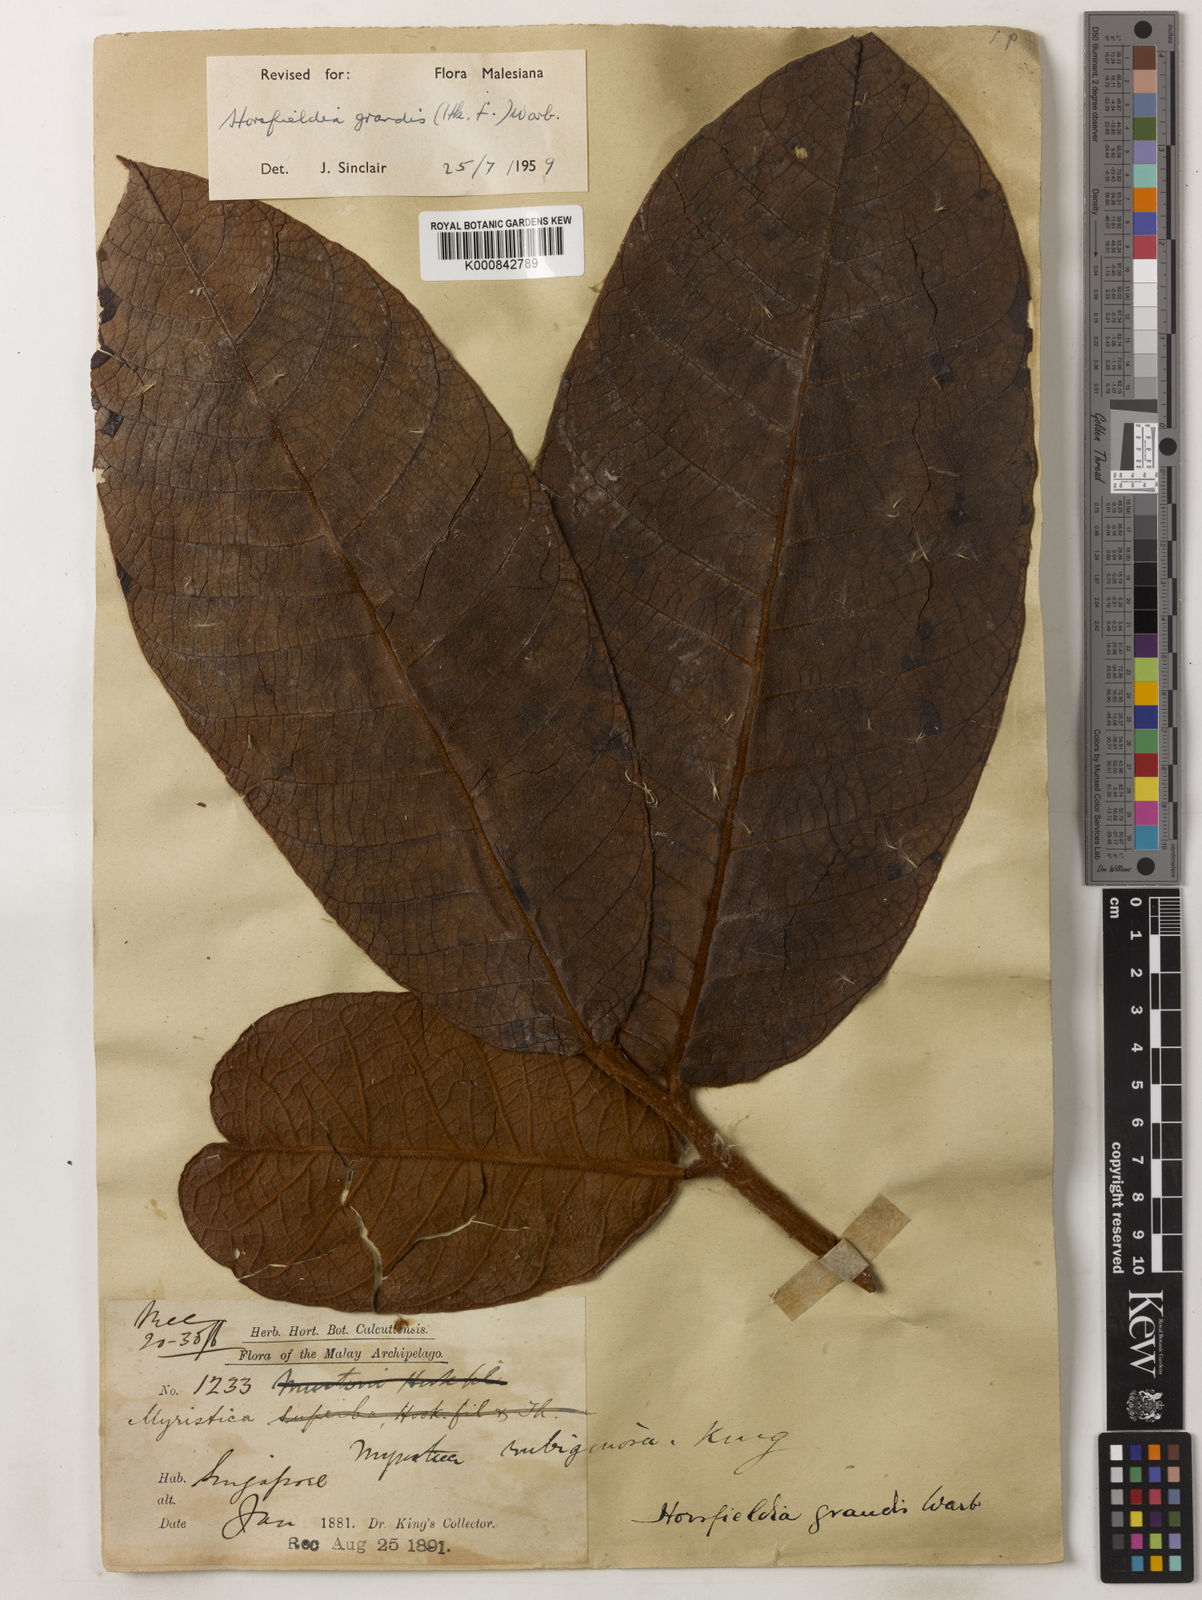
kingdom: Plantae
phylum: Tracheophyta
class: Magnoliopsida
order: Magnoliales
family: Myristicaceae
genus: Horsfieldia
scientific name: Horsfieldia grandis
